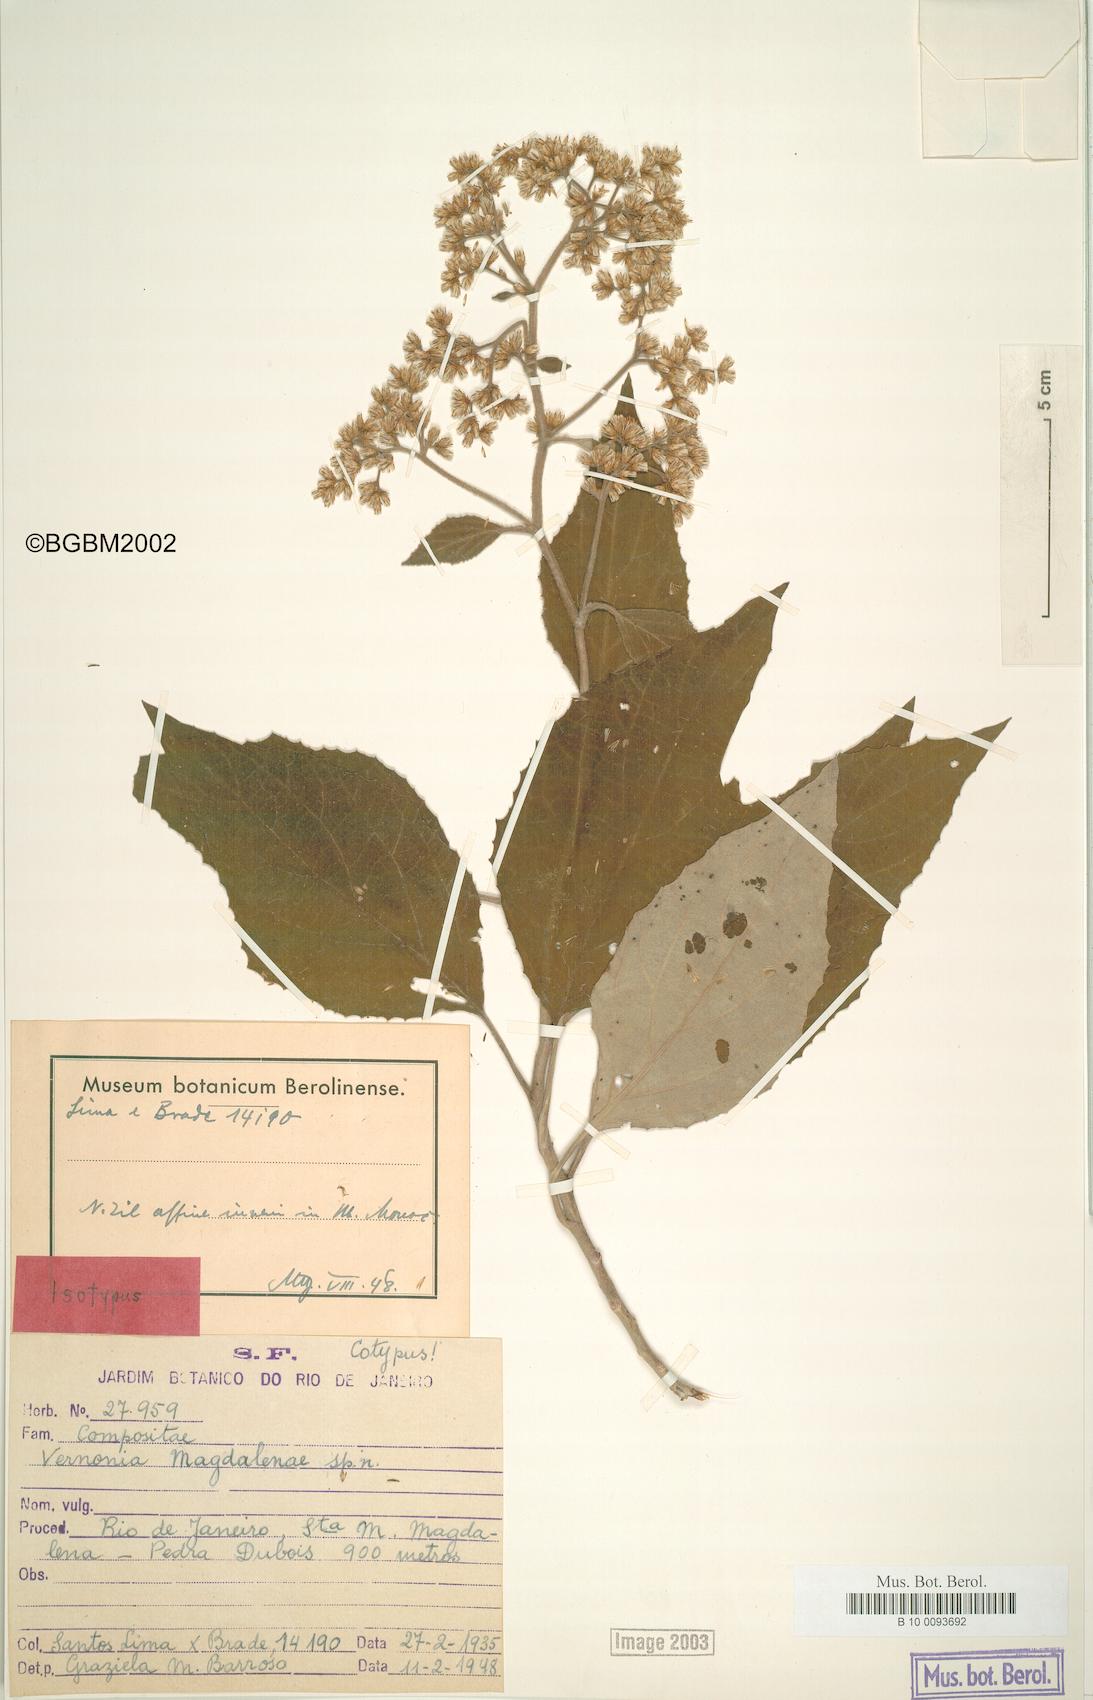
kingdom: Plantae
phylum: Tracheophyta
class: Magnoliopsida
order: Asterales
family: Asteraceae
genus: Critoniopsis
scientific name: Critoniopsis magdalenae
